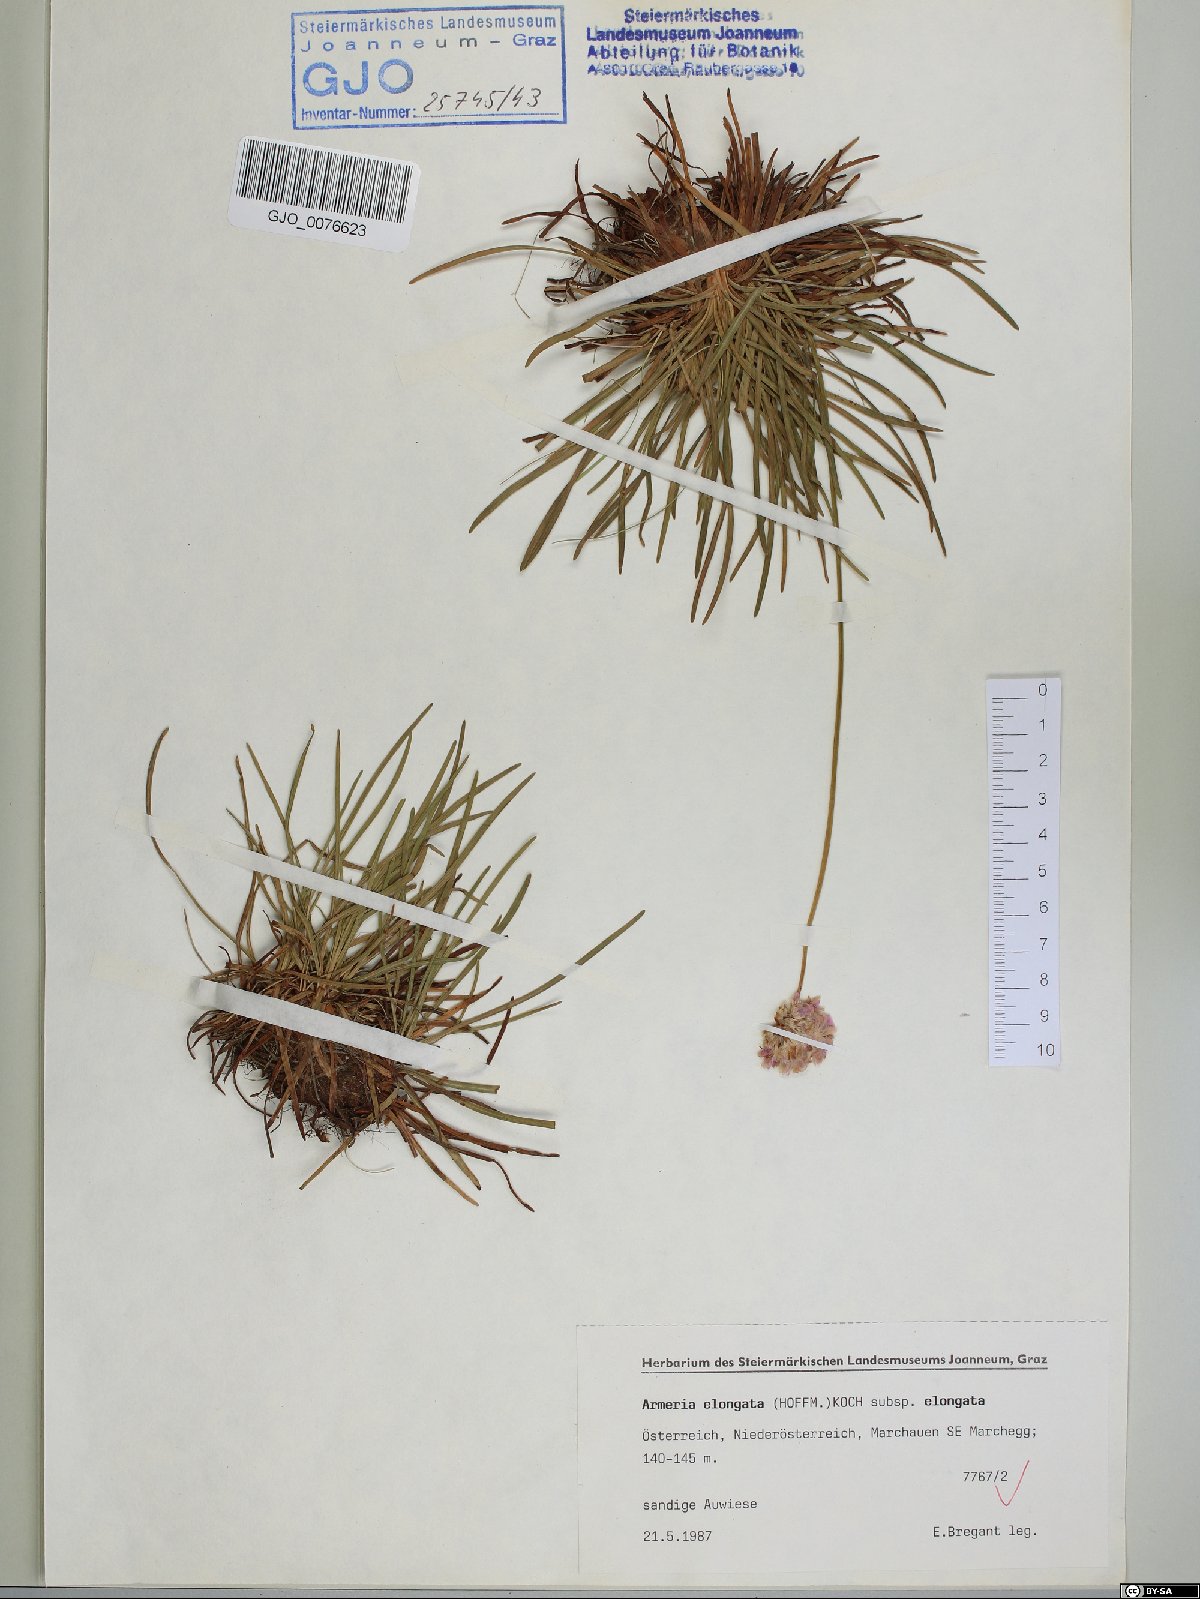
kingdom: Plantae
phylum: Tracheophyta
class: Magnoliopsida
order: Caryophyllales
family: Plumbaginaceae
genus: Armeria
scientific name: Armeria maritima
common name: Thrift
